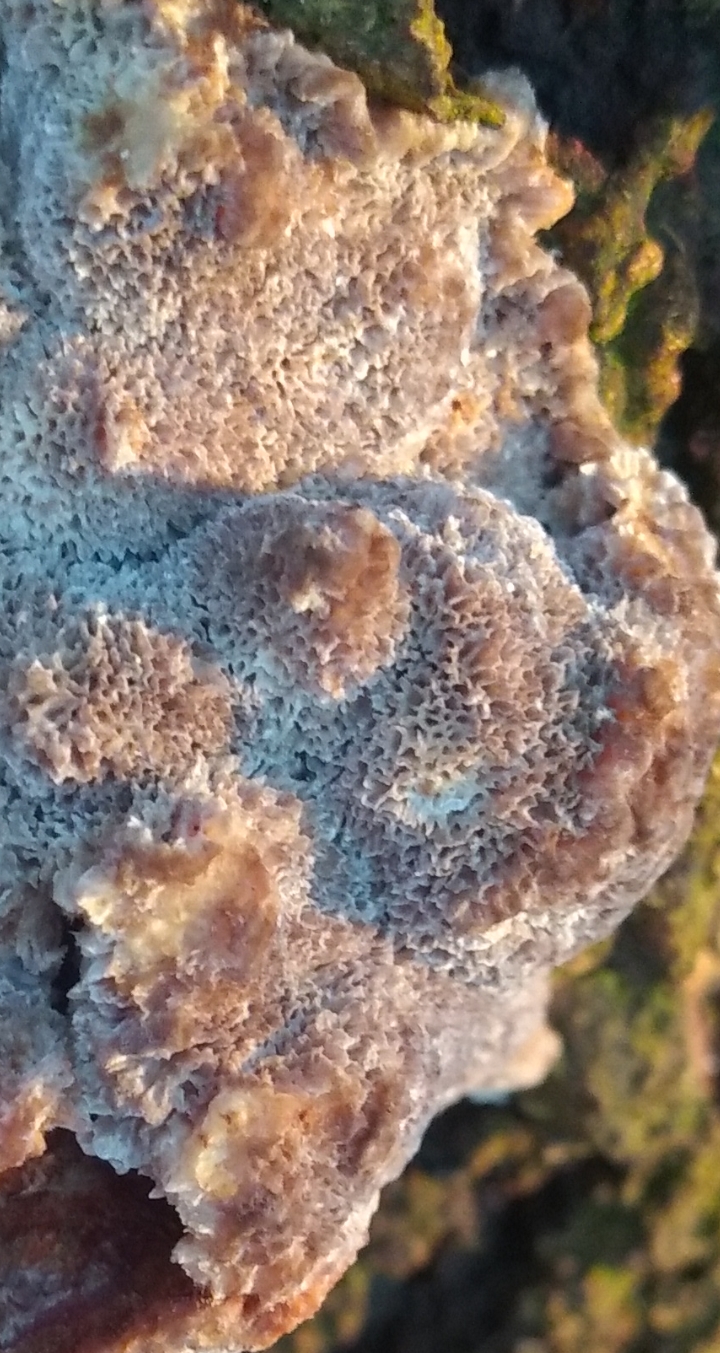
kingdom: Fungi
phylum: Basidiomycota
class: Agaricomycetes
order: Polyporales
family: Polyporaceae
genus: Trametes
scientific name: Trametes versicolor
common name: broget læderporesvamp
